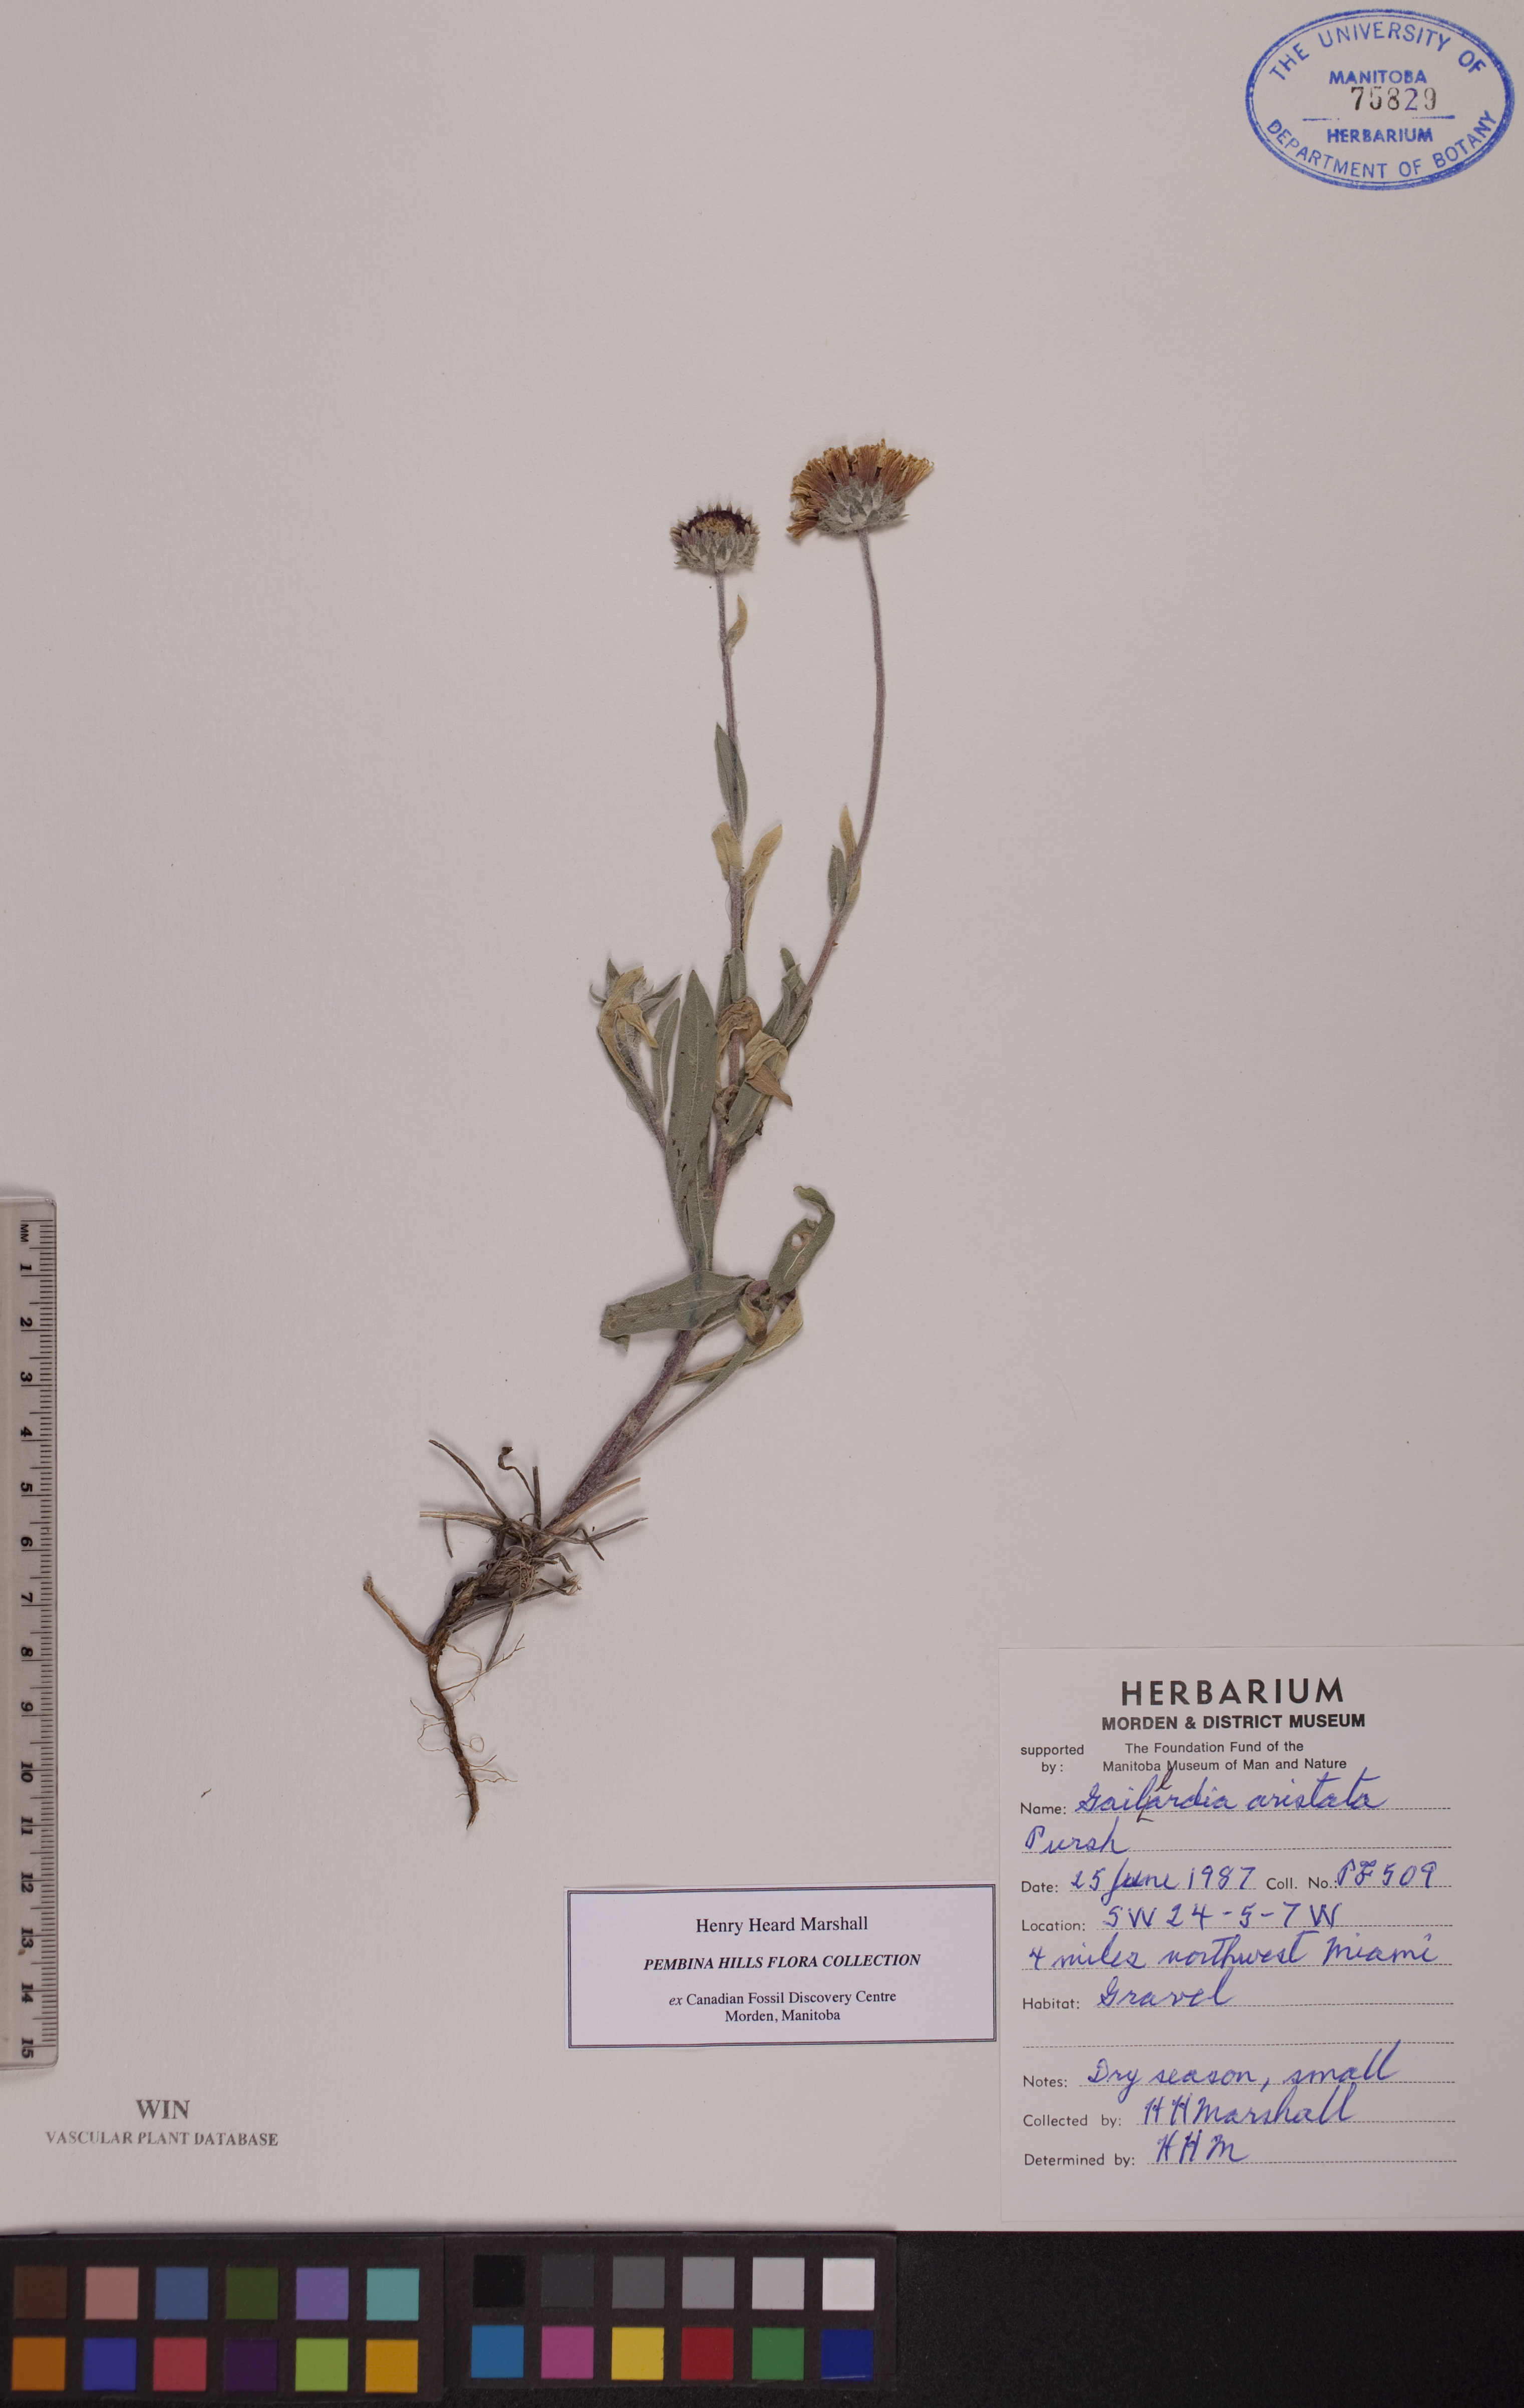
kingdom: Plantae
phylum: Tracheophyta
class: Magnoliopsida
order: Asterales
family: Asteraceae
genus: Gaillardia
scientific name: Gaillardia aristata
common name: Blanket-flower
